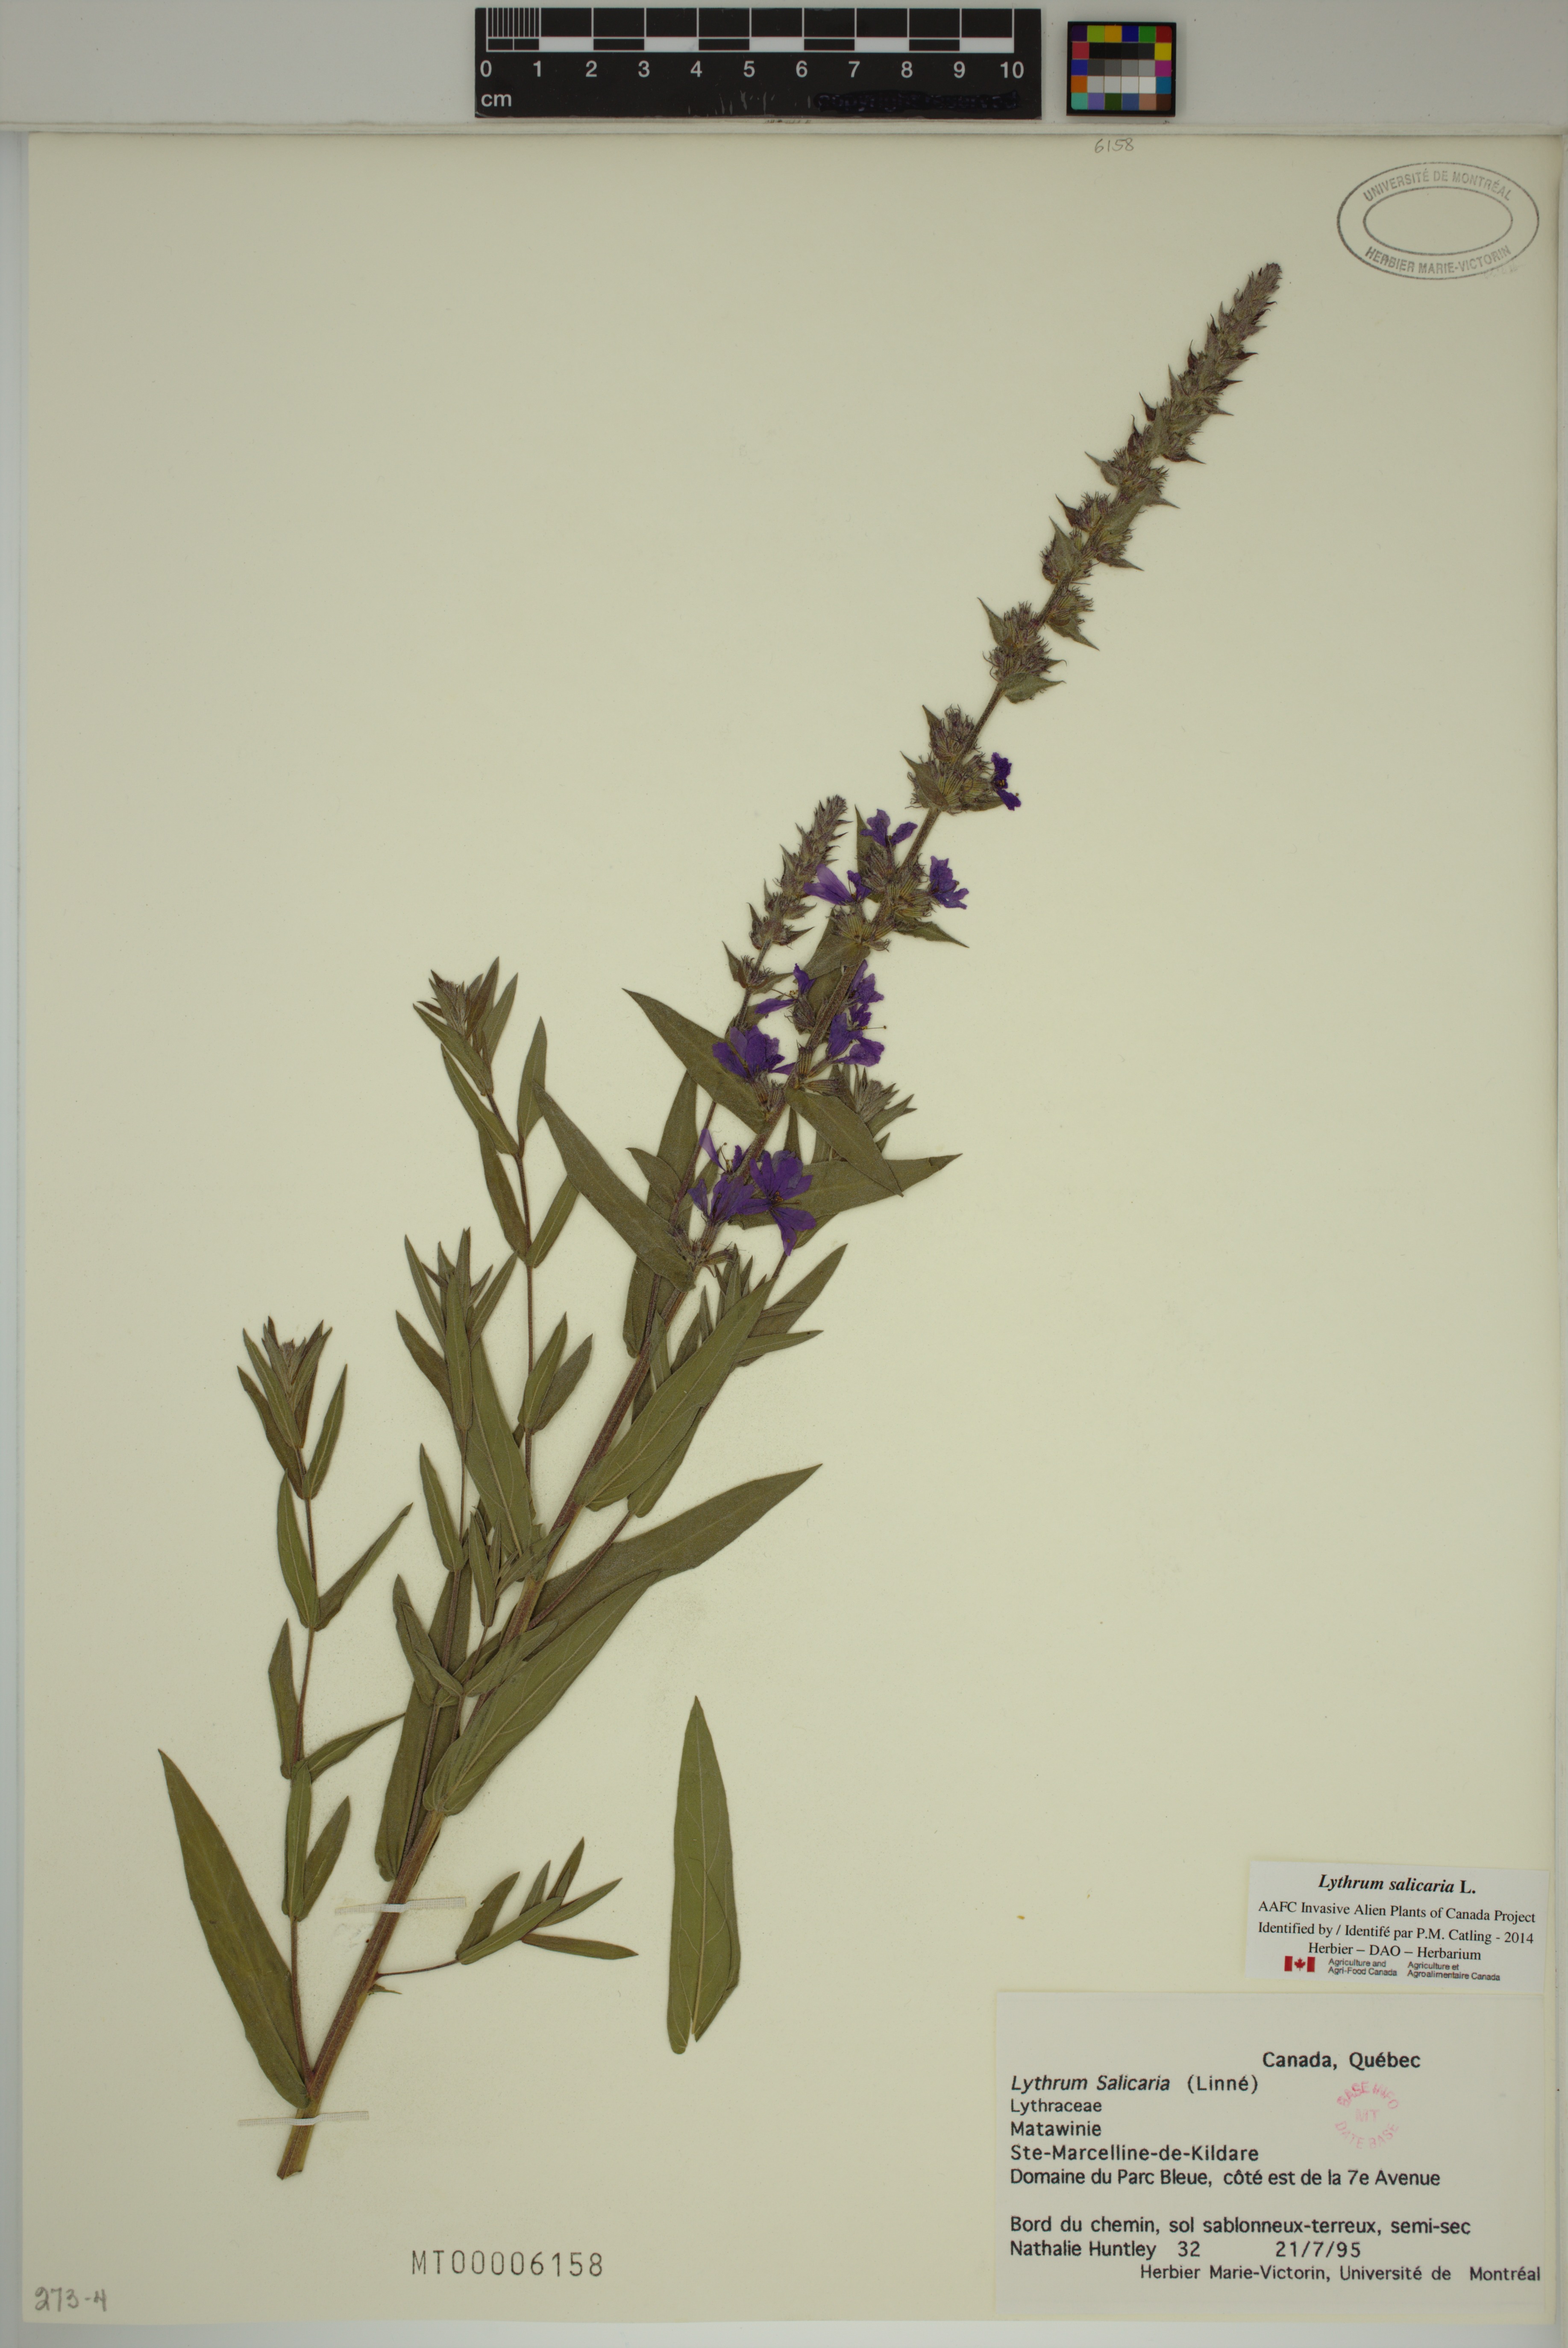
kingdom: Plantae
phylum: Tracheophyta
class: Magnoliopsida
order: Myrtales
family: Lythraceae
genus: Lythrum
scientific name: Lythrum salicaria
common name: Purple loosestrife
